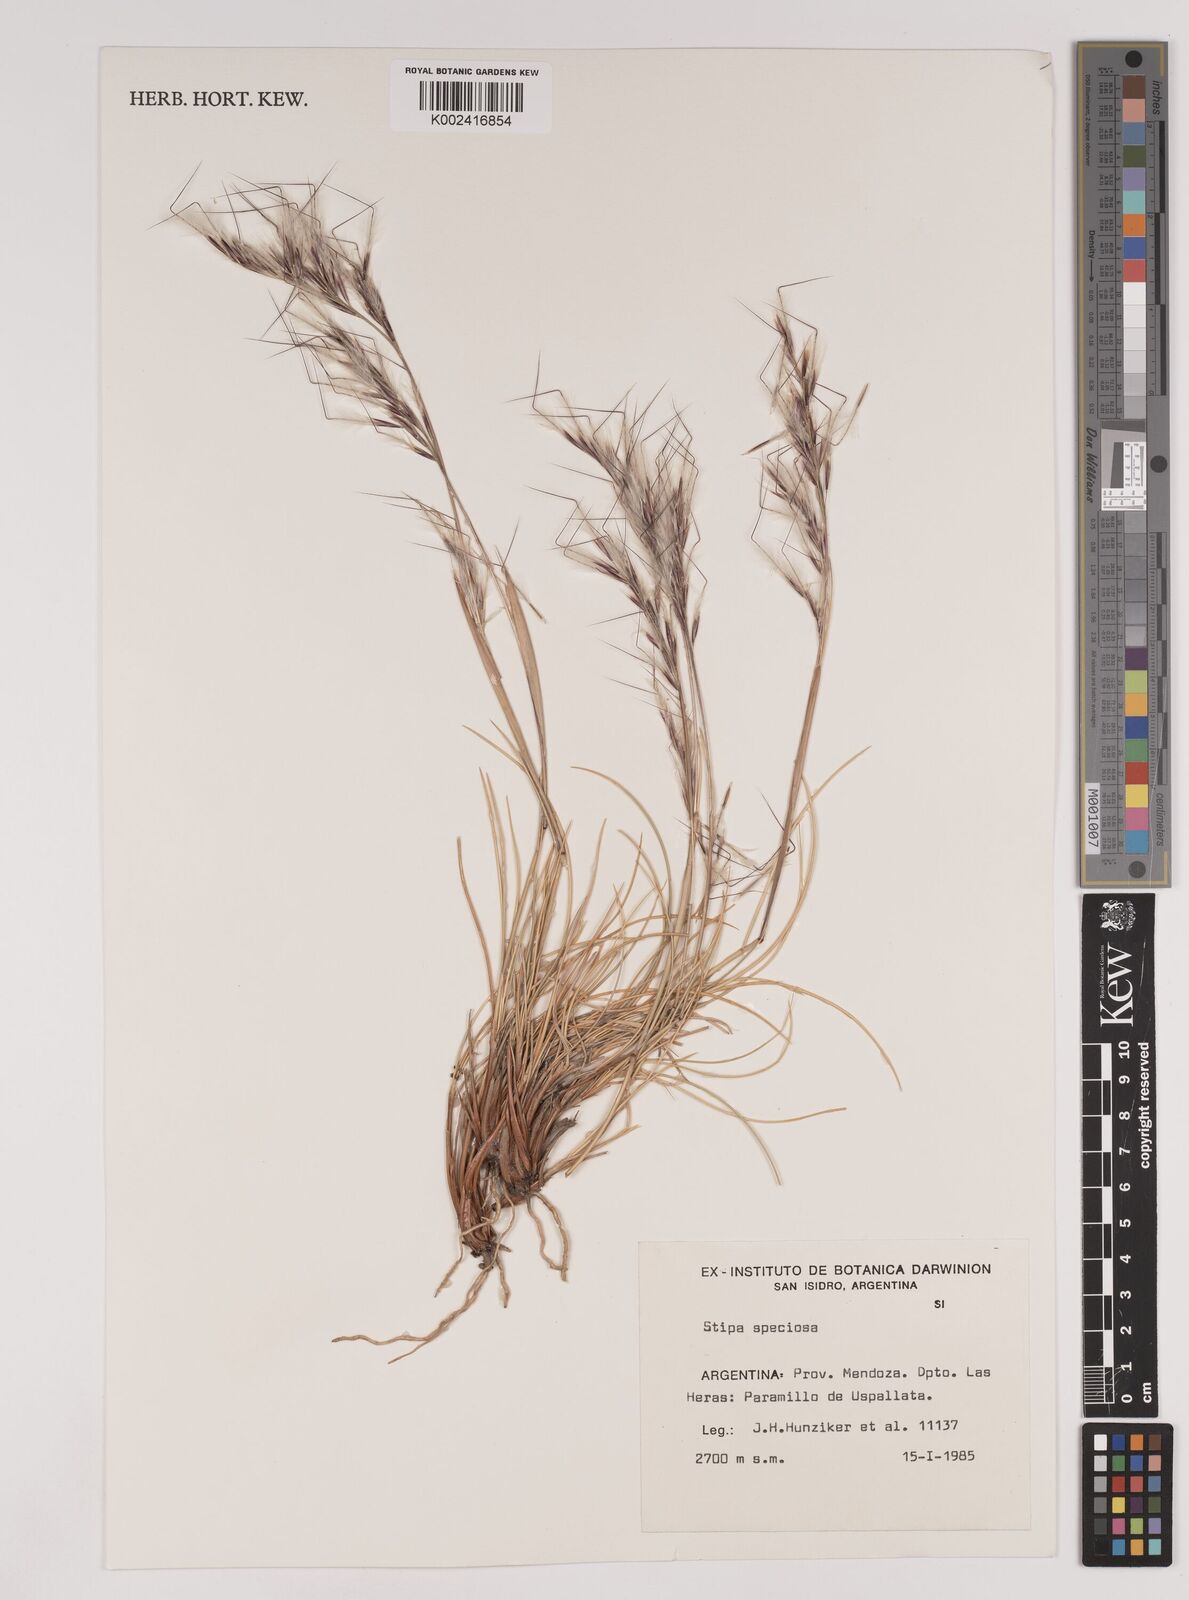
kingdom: Plantae
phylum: Tracheophyta
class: Liliopsida
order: Poales
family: Poaceae
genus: Pappostipa
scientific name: Pappostipa speciosa
